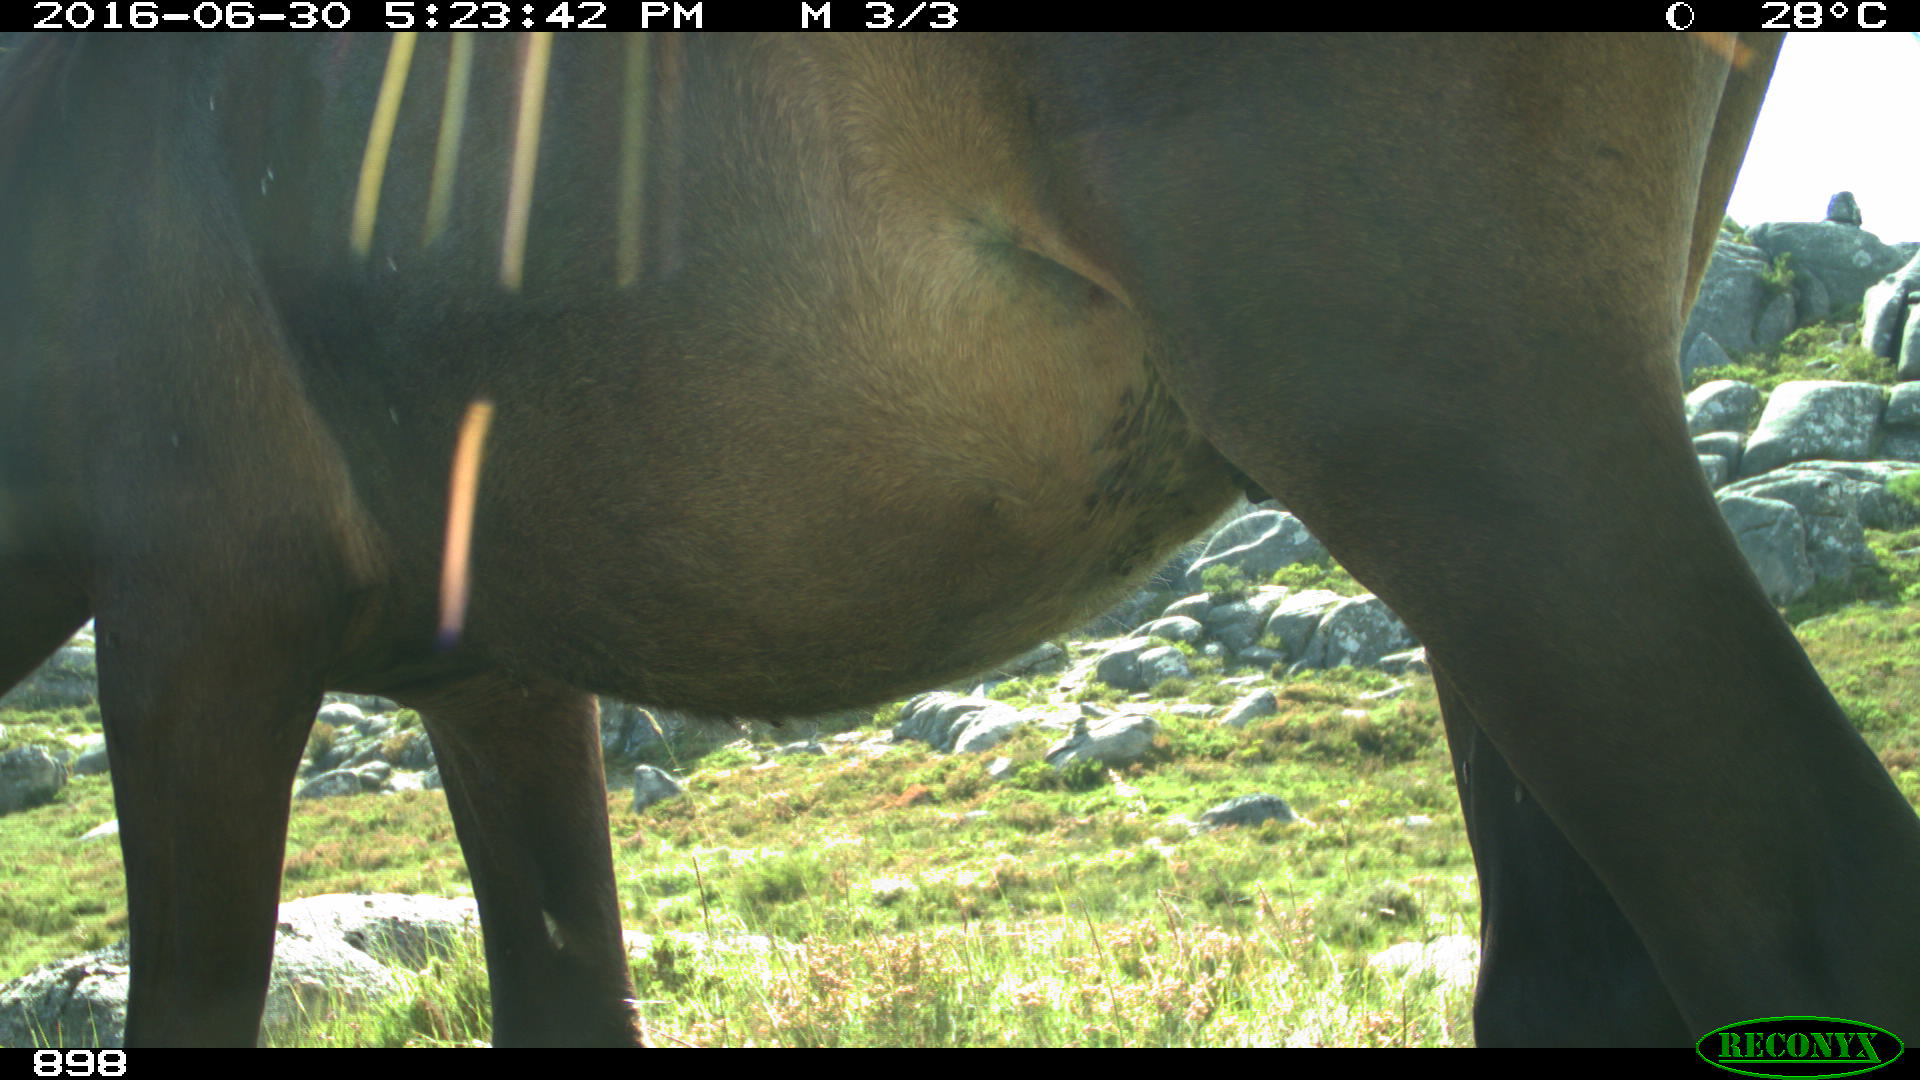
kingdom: Animalia
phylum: Chordata
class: Mammalia
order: Perissodactyla
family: Equidae
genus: Equus
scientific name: Equus caballus
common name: Horse
